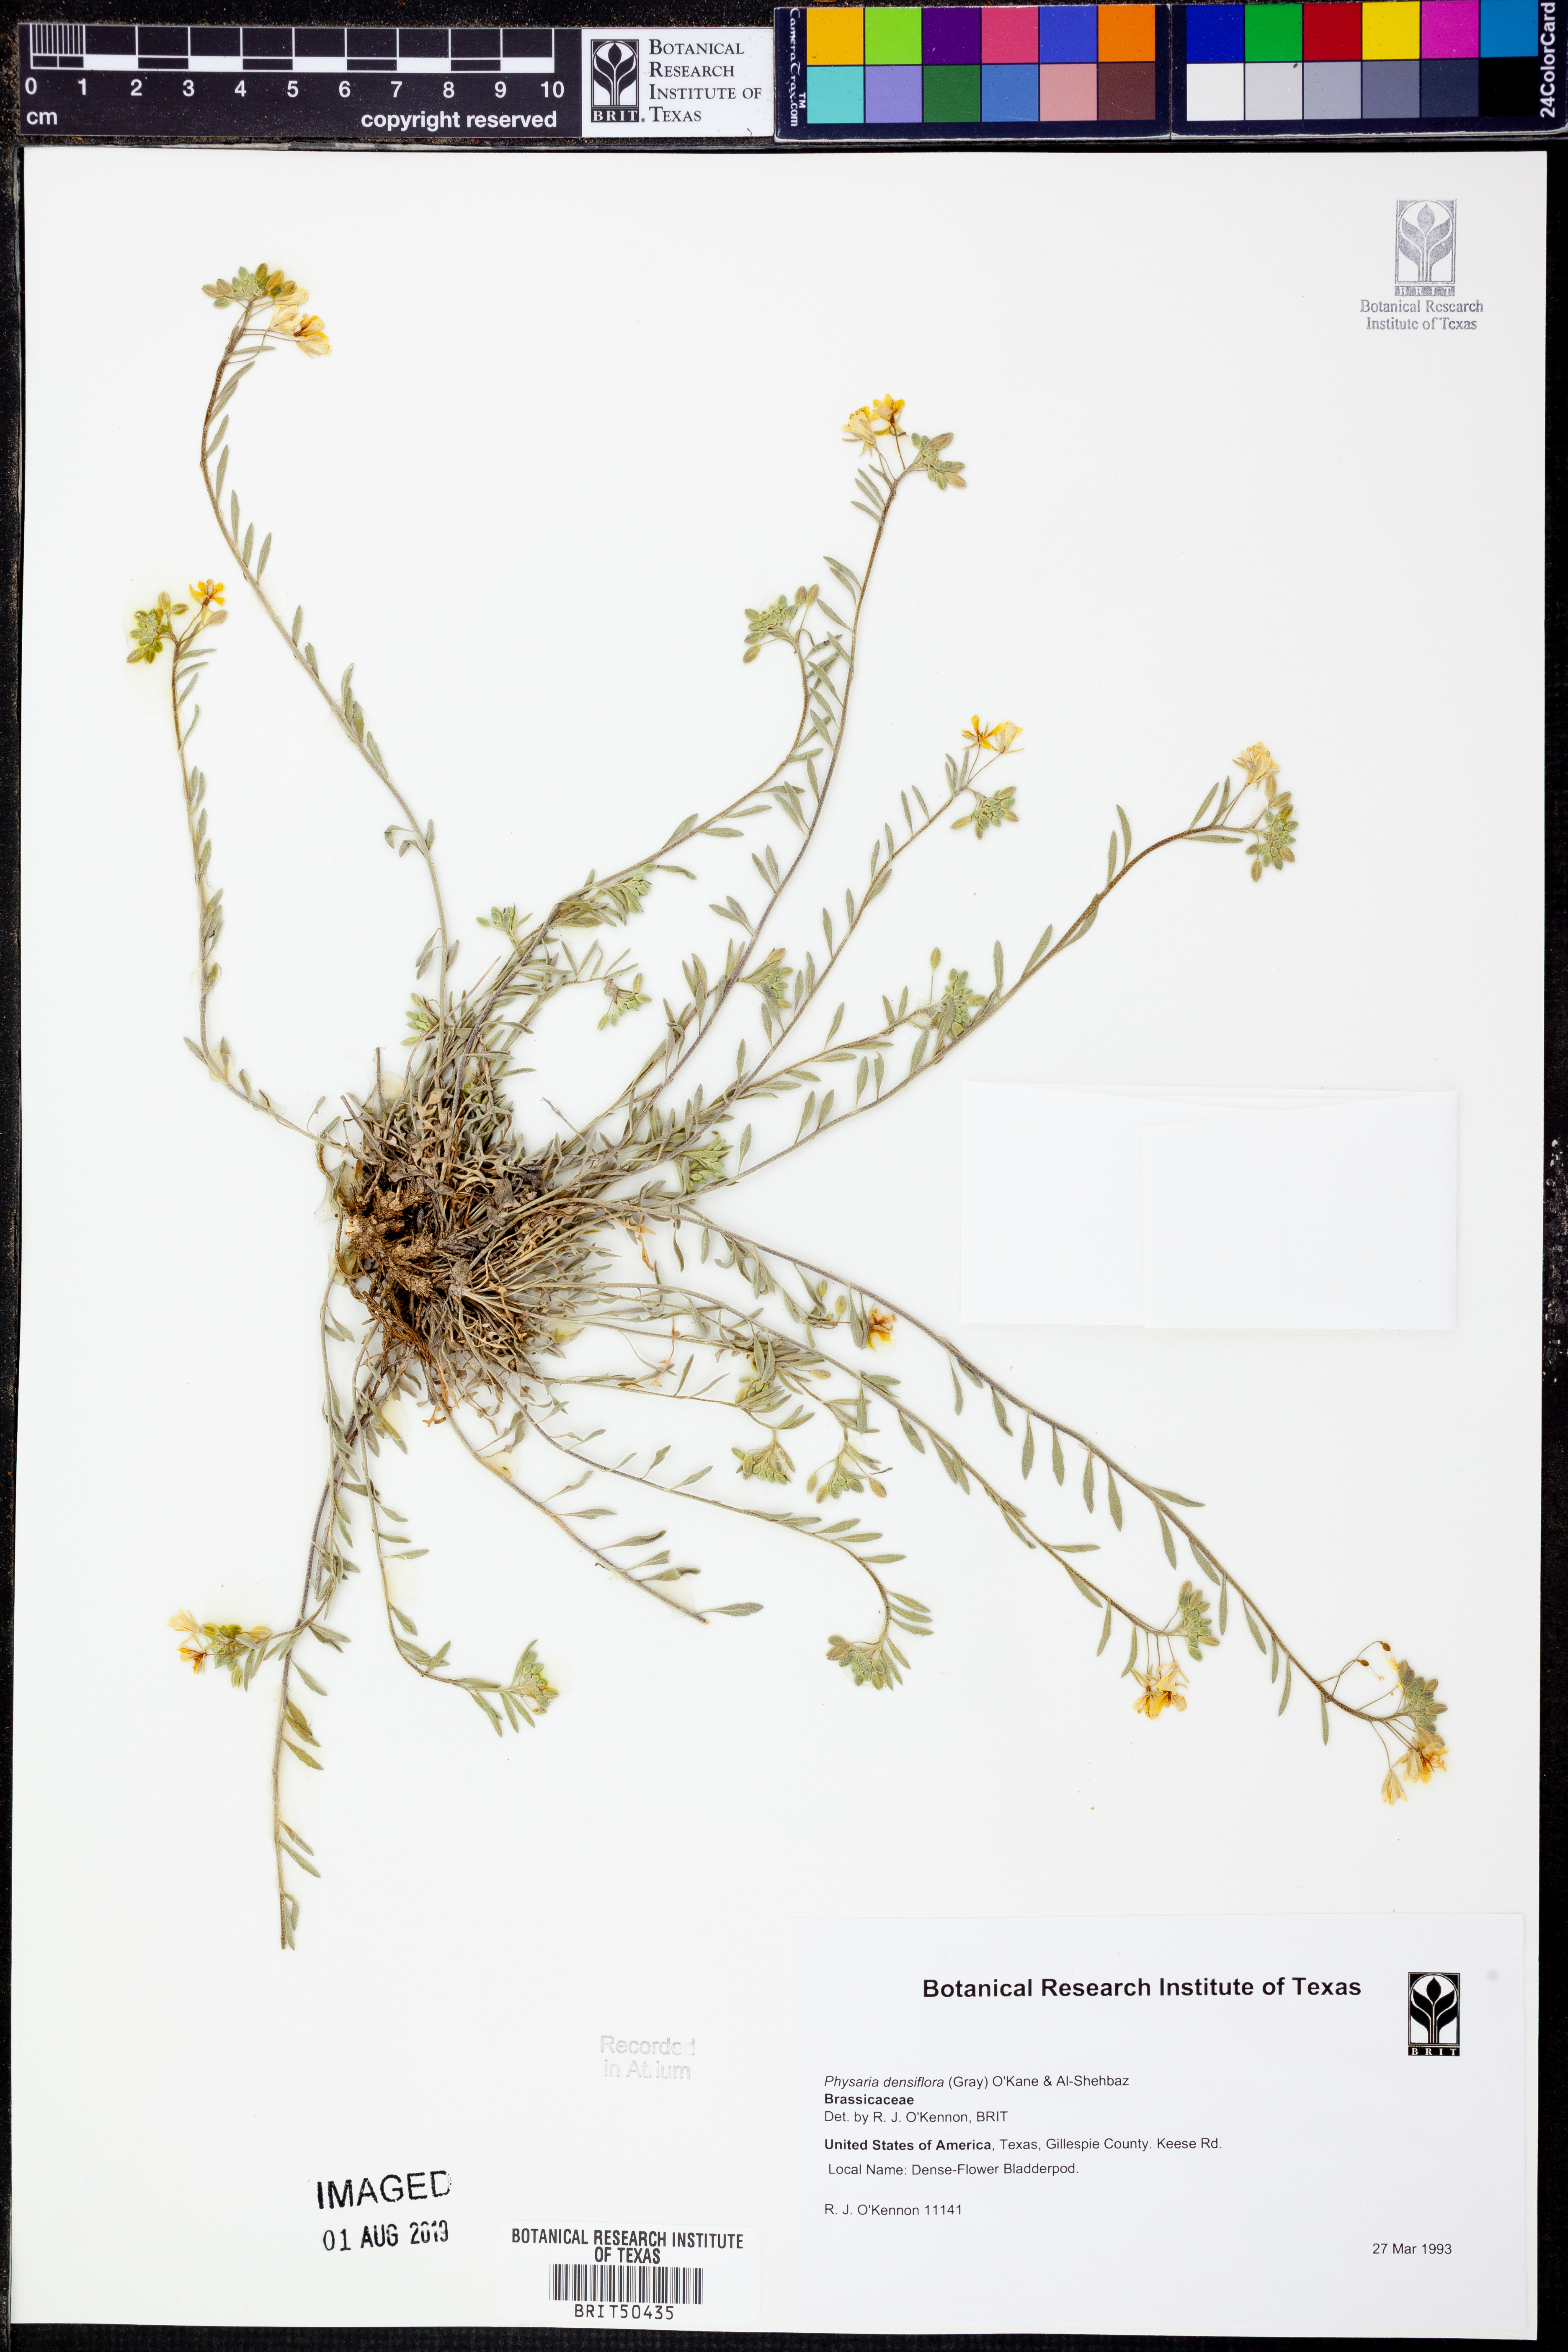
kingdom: Plantae
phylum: Tracheophyta
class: Magnoliopsida
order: Brassicales
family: Brassicaceae
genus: Physaria
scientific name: Physaria densiflora
